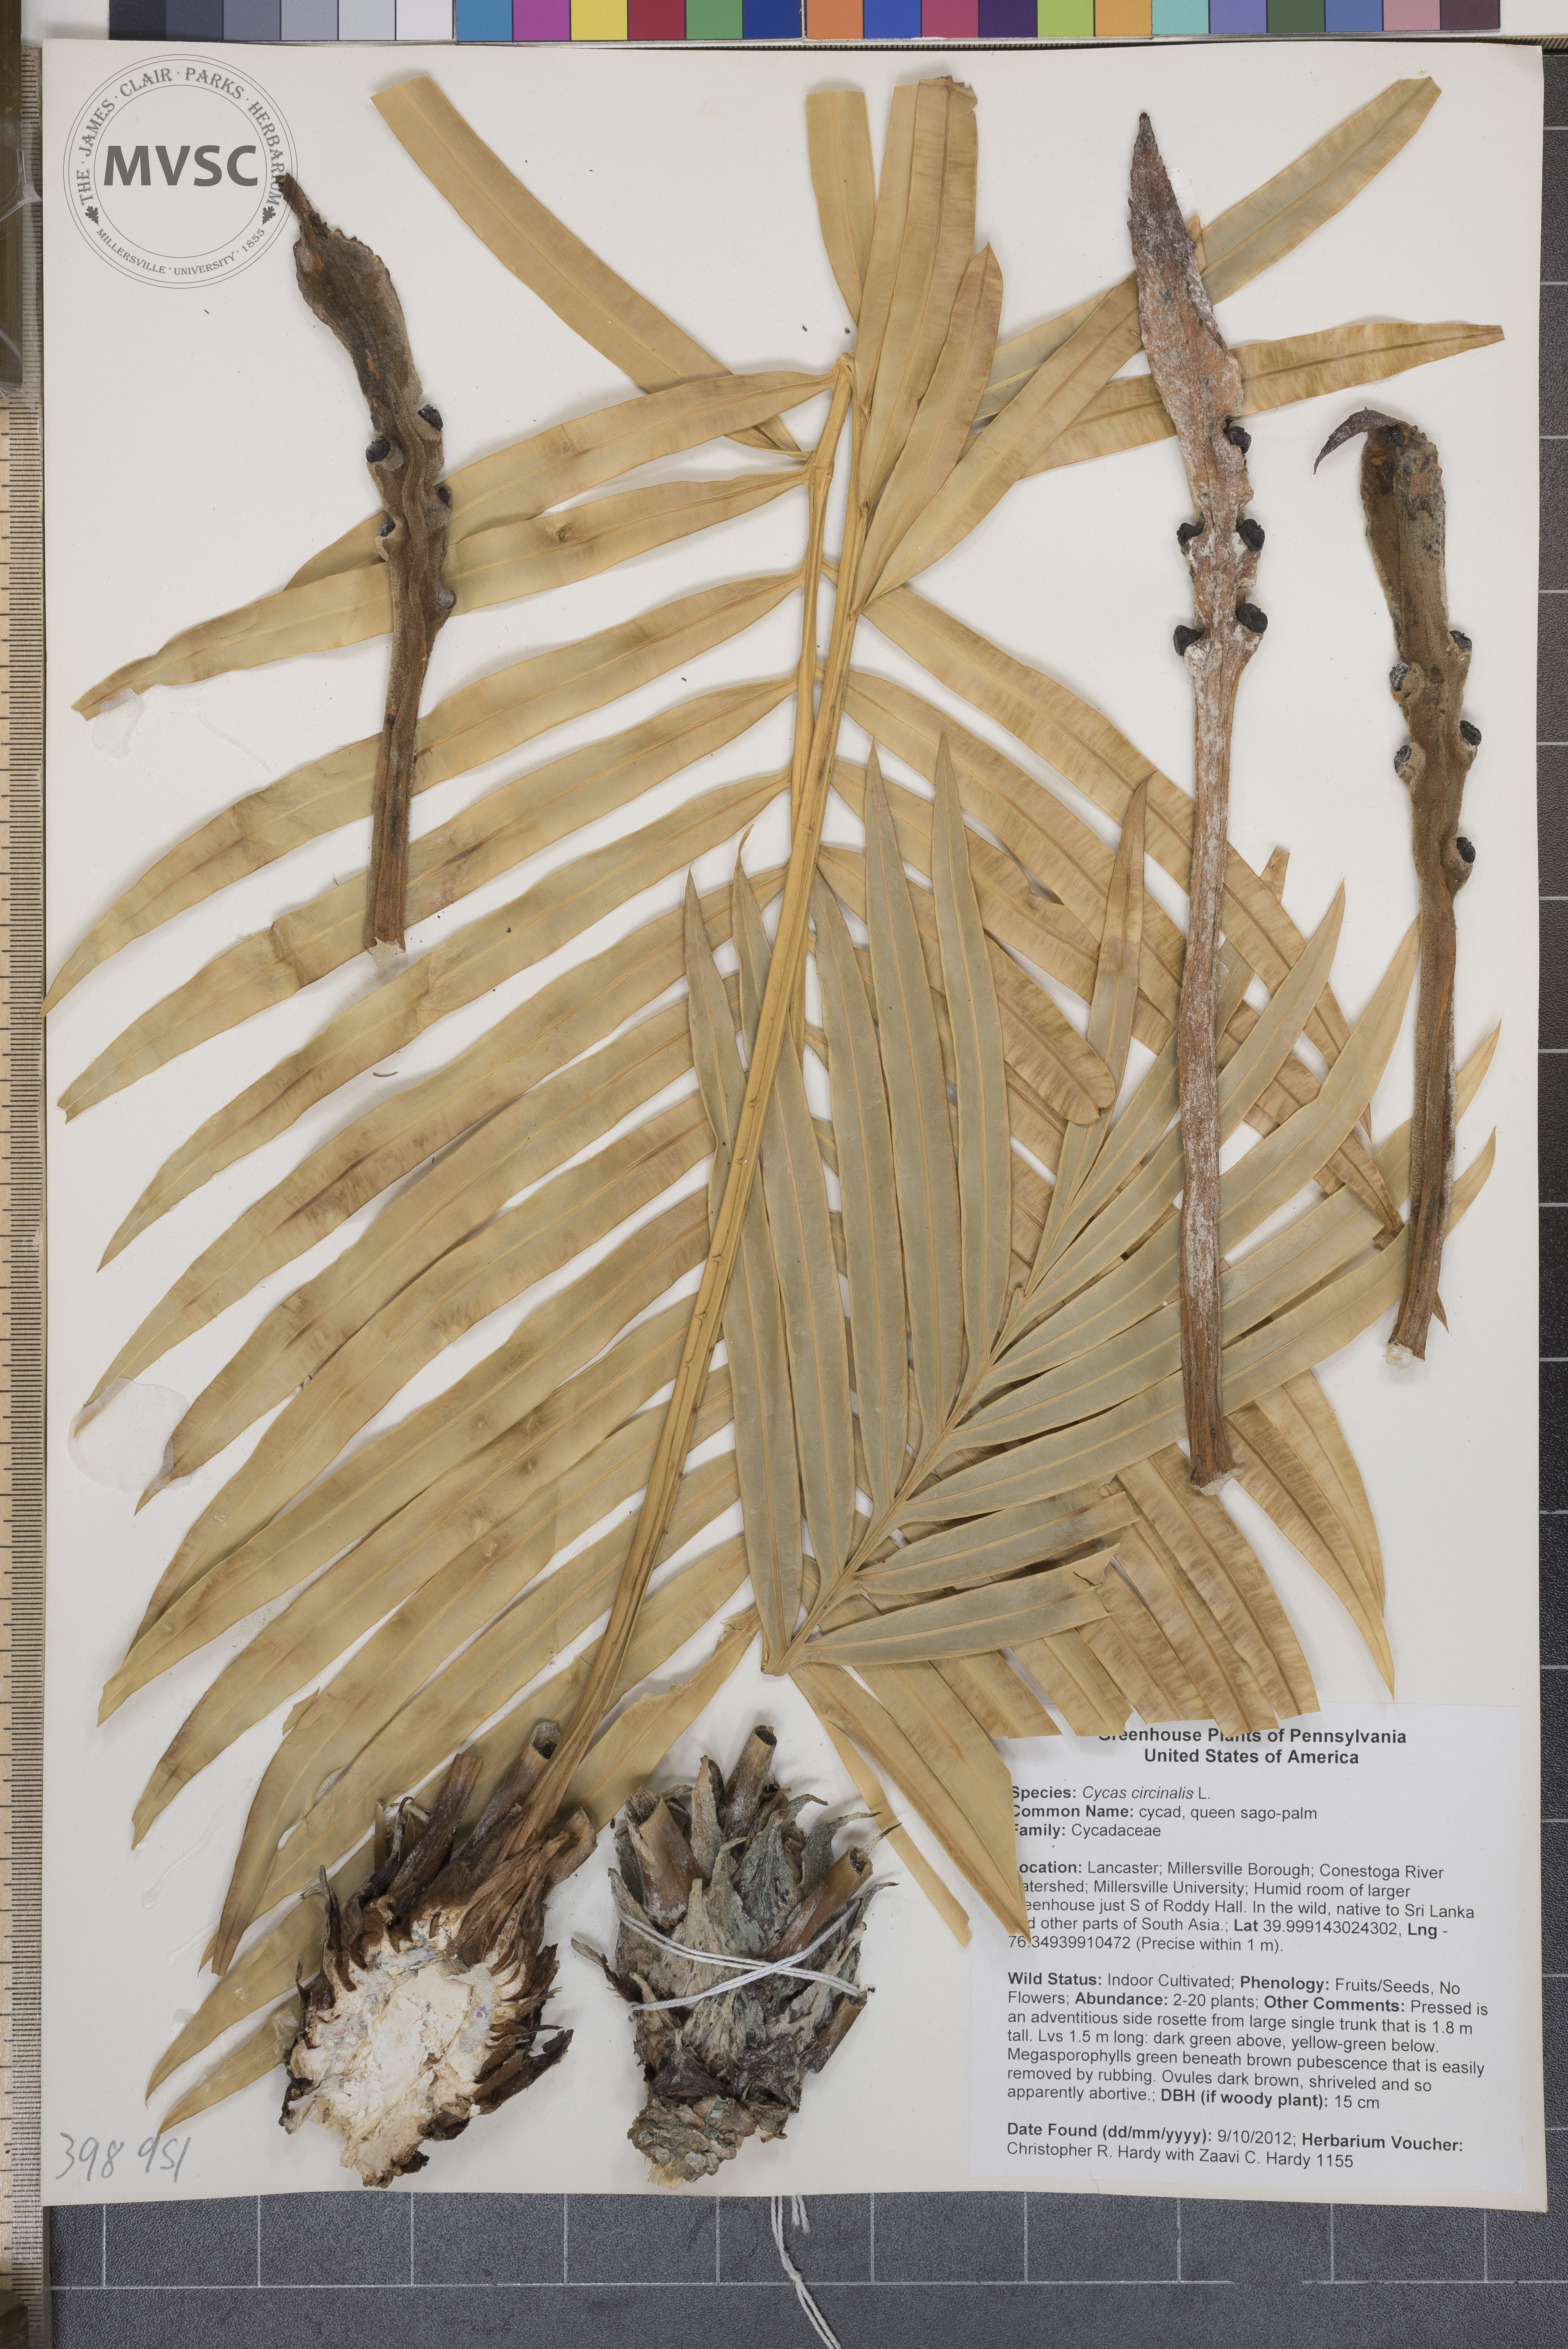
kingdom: Plantae
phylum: Tracheophyta
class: Cycadopsida
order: Cycadales
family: Cycadaceae
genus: Cycas
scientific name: Cycas circinalis
